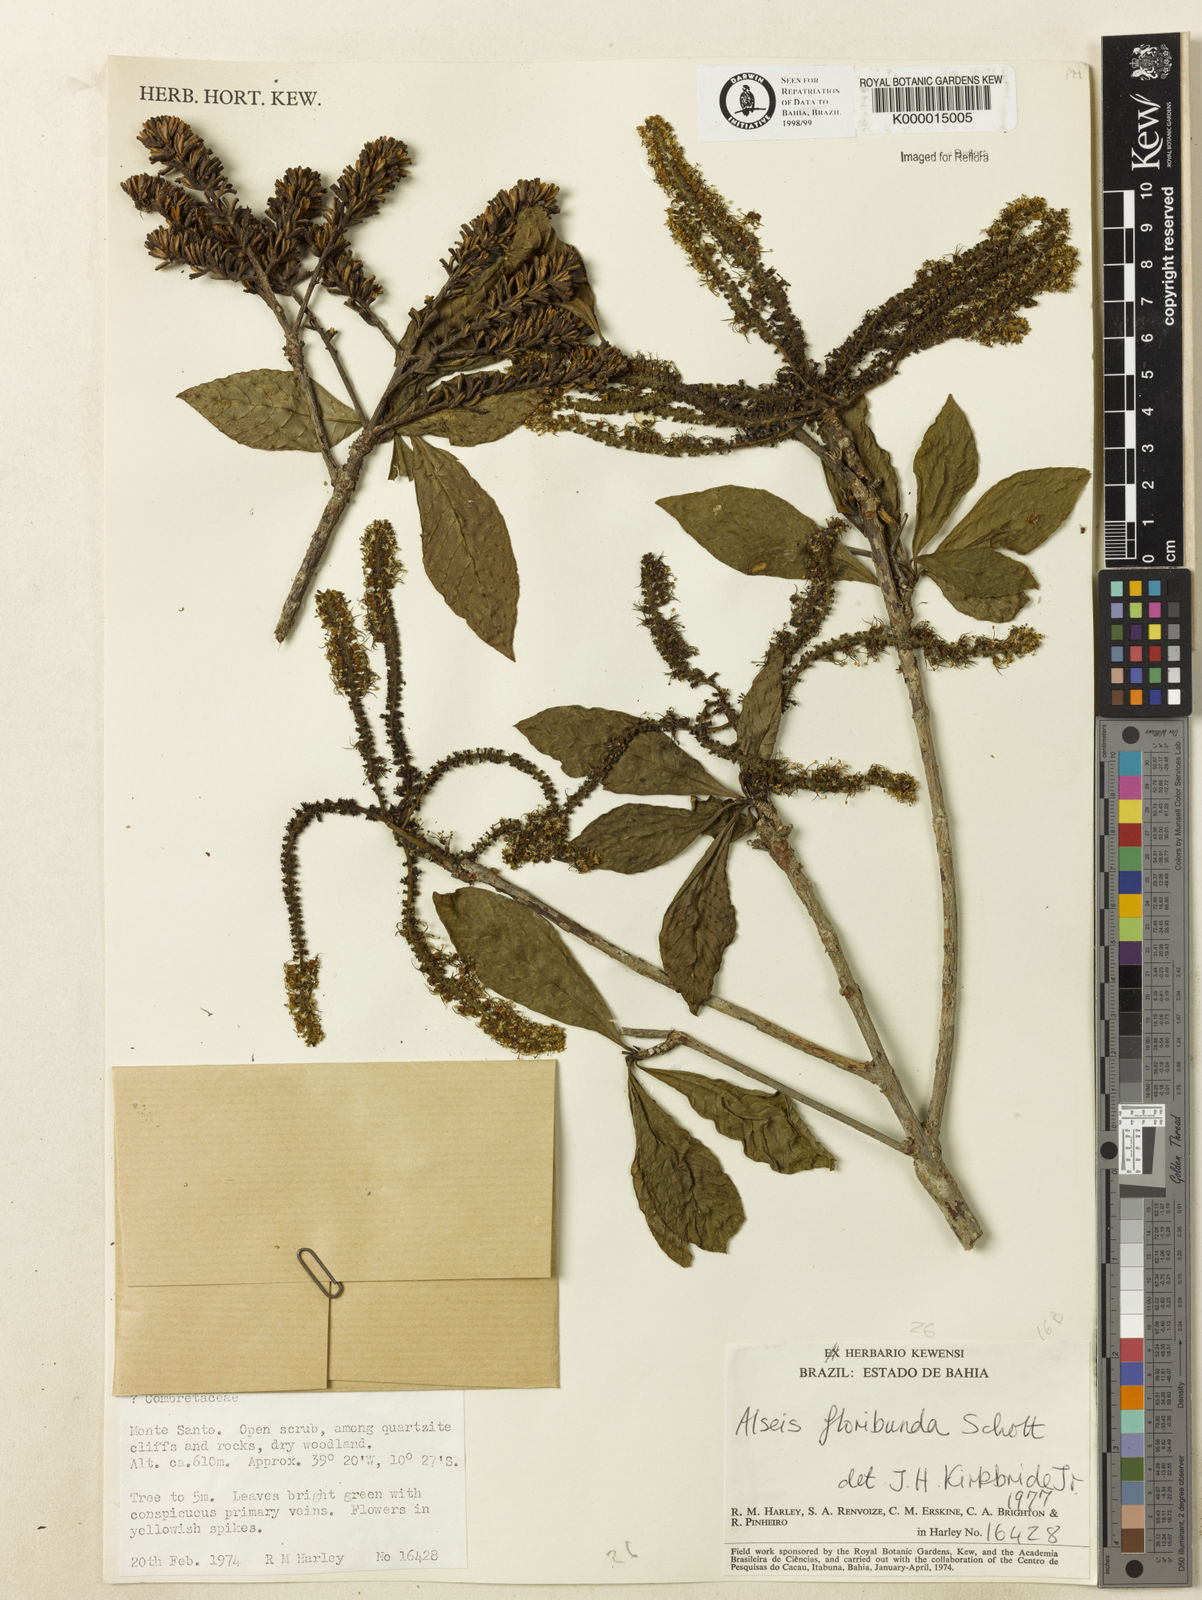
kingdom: Plantae
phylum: Tracheophyta
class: Magnoliopsida
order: Gentianales
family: Rubiaceae
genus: Alseis
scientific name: Alseis floribunda
